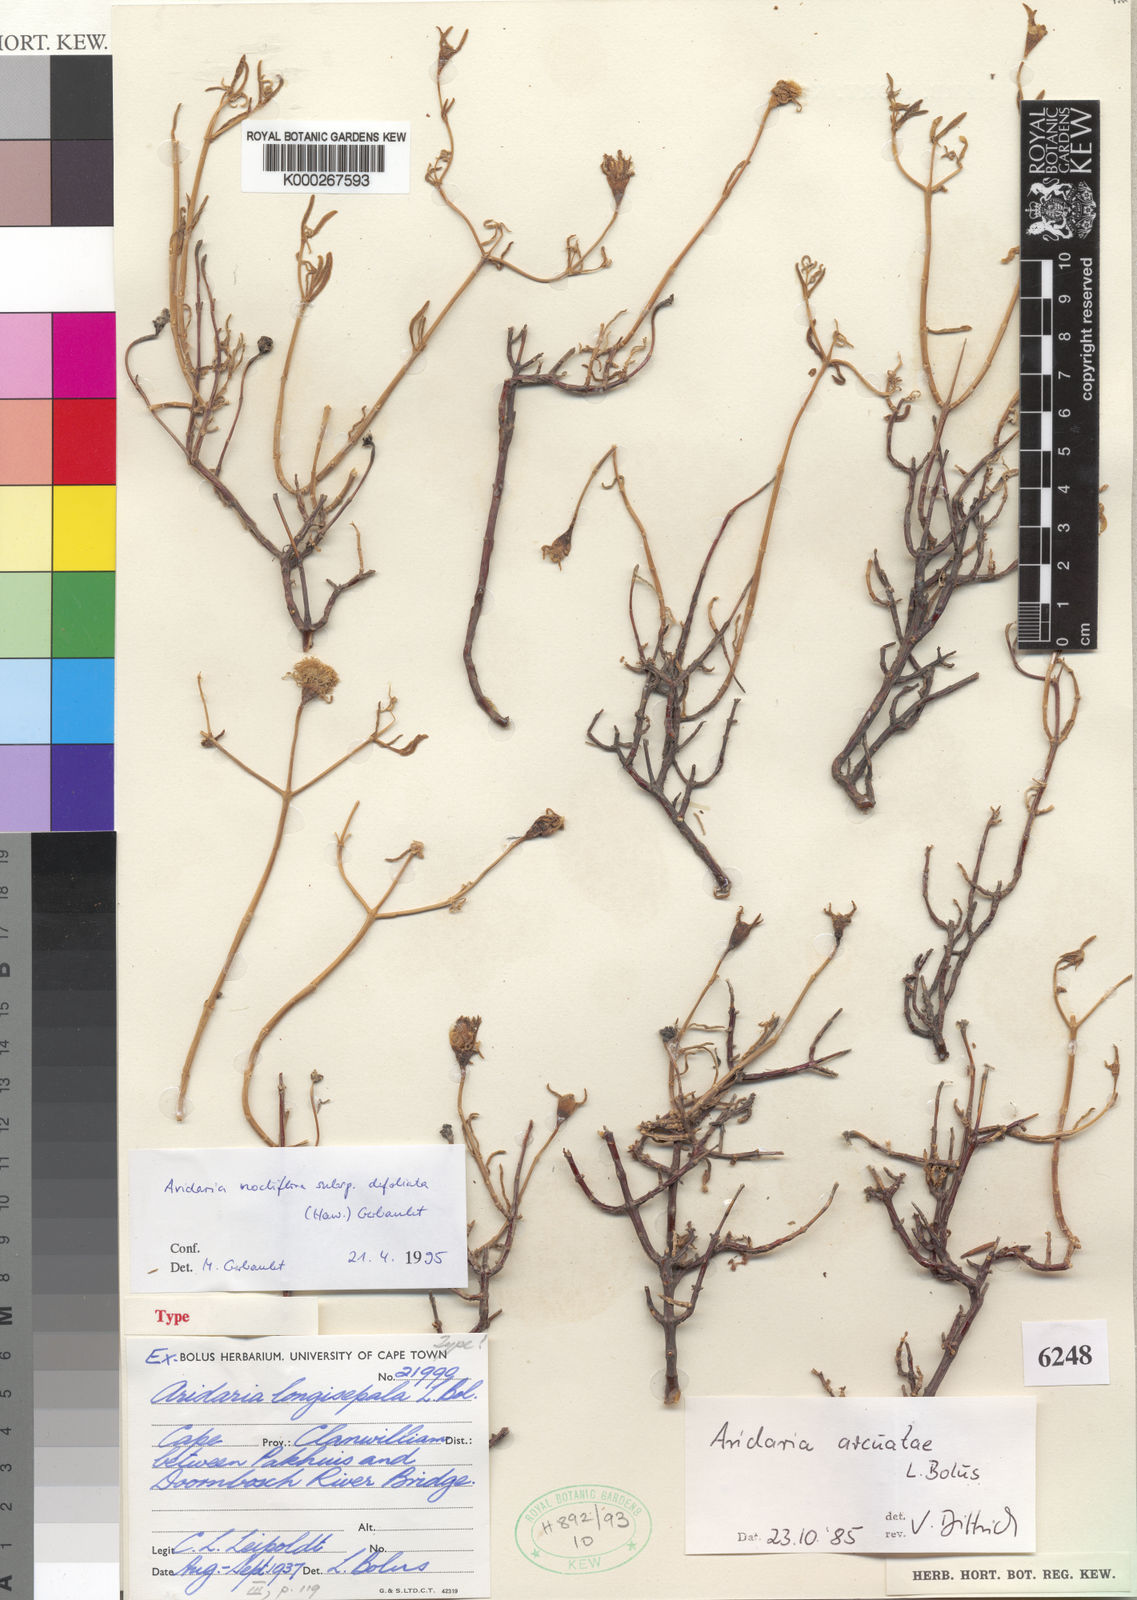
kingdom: Plantae
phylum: Tracheophyta
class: Magnoliopsida
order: Caryophyllales
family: Aizoaceae
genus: Mesembryanthemum
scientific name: Mesembryanthemum noctiflorum
